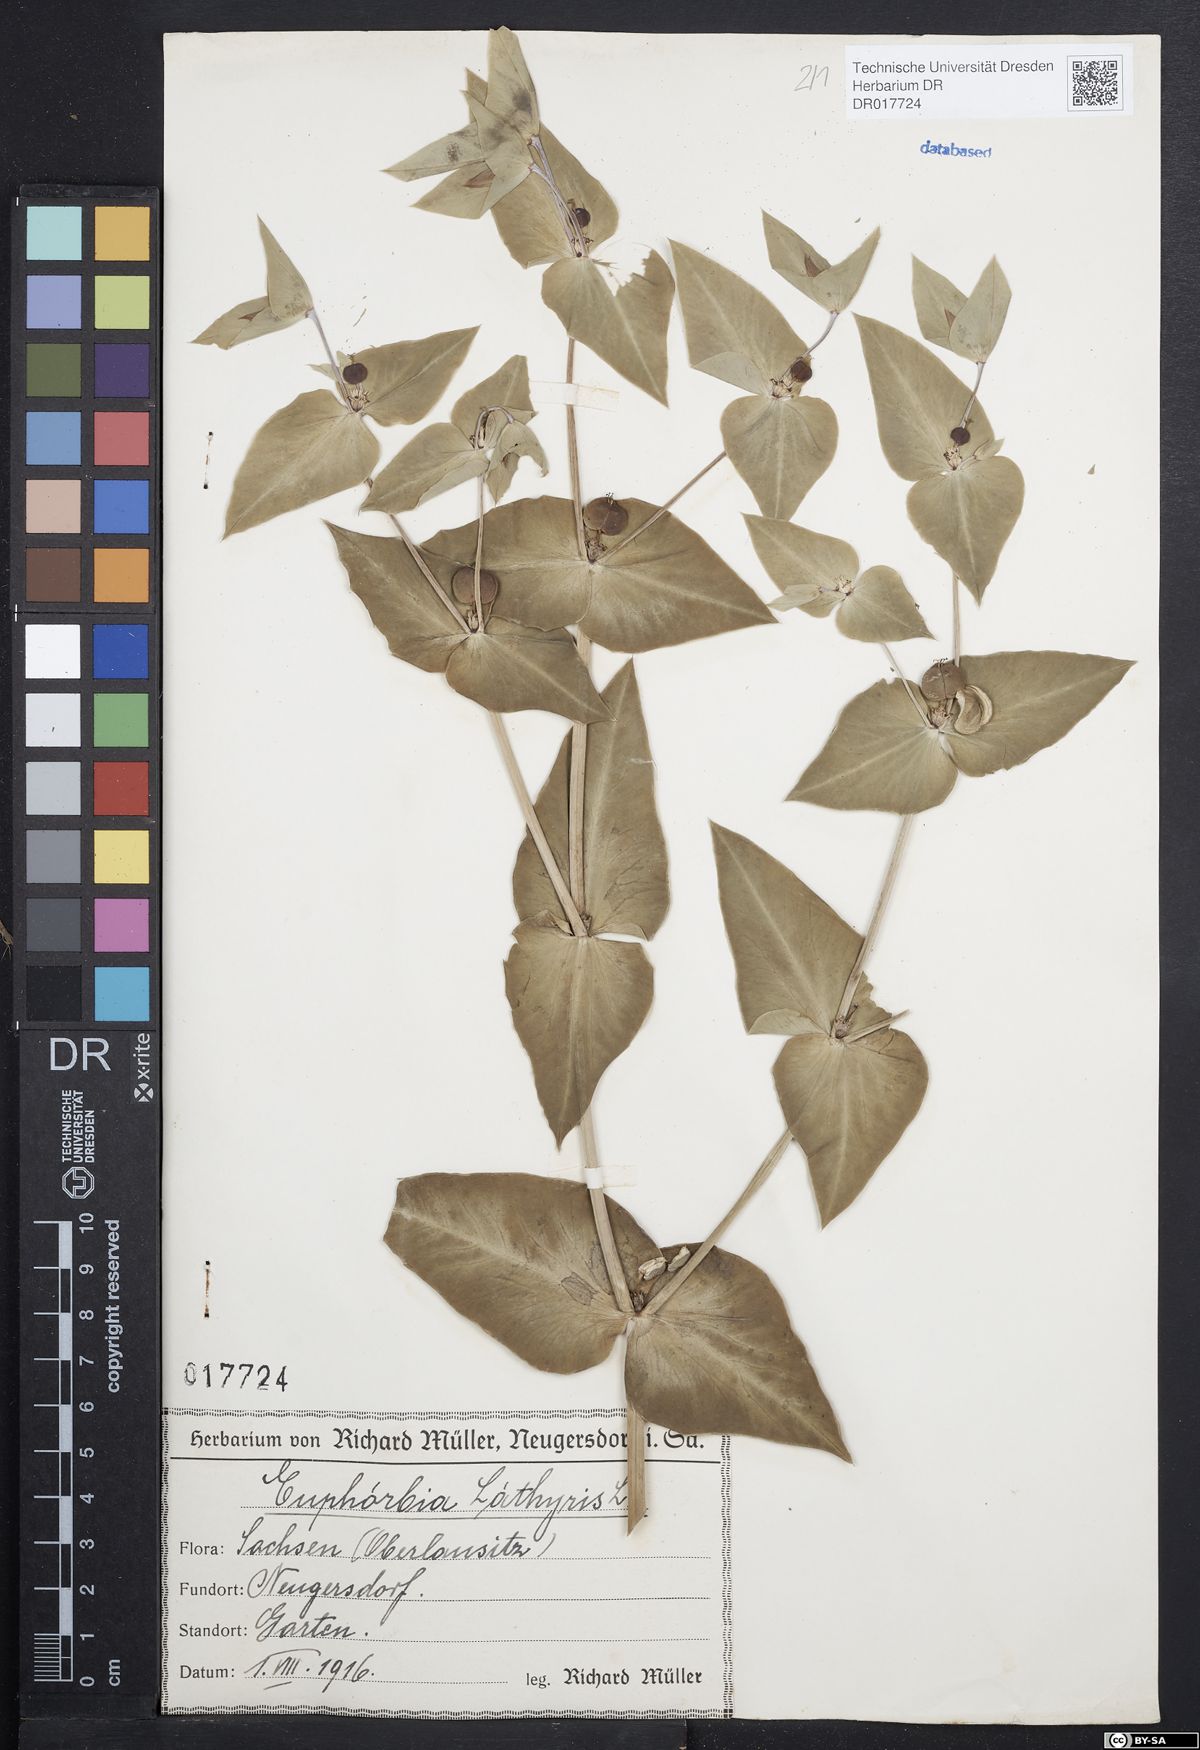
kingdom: Plantae
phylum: Tracheophyta
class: Magnoliopsida
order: Malpighiales
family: Euphorbiaceae
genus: Euphorbia
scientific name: Euphorbia lathyris
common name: Caper spurge
